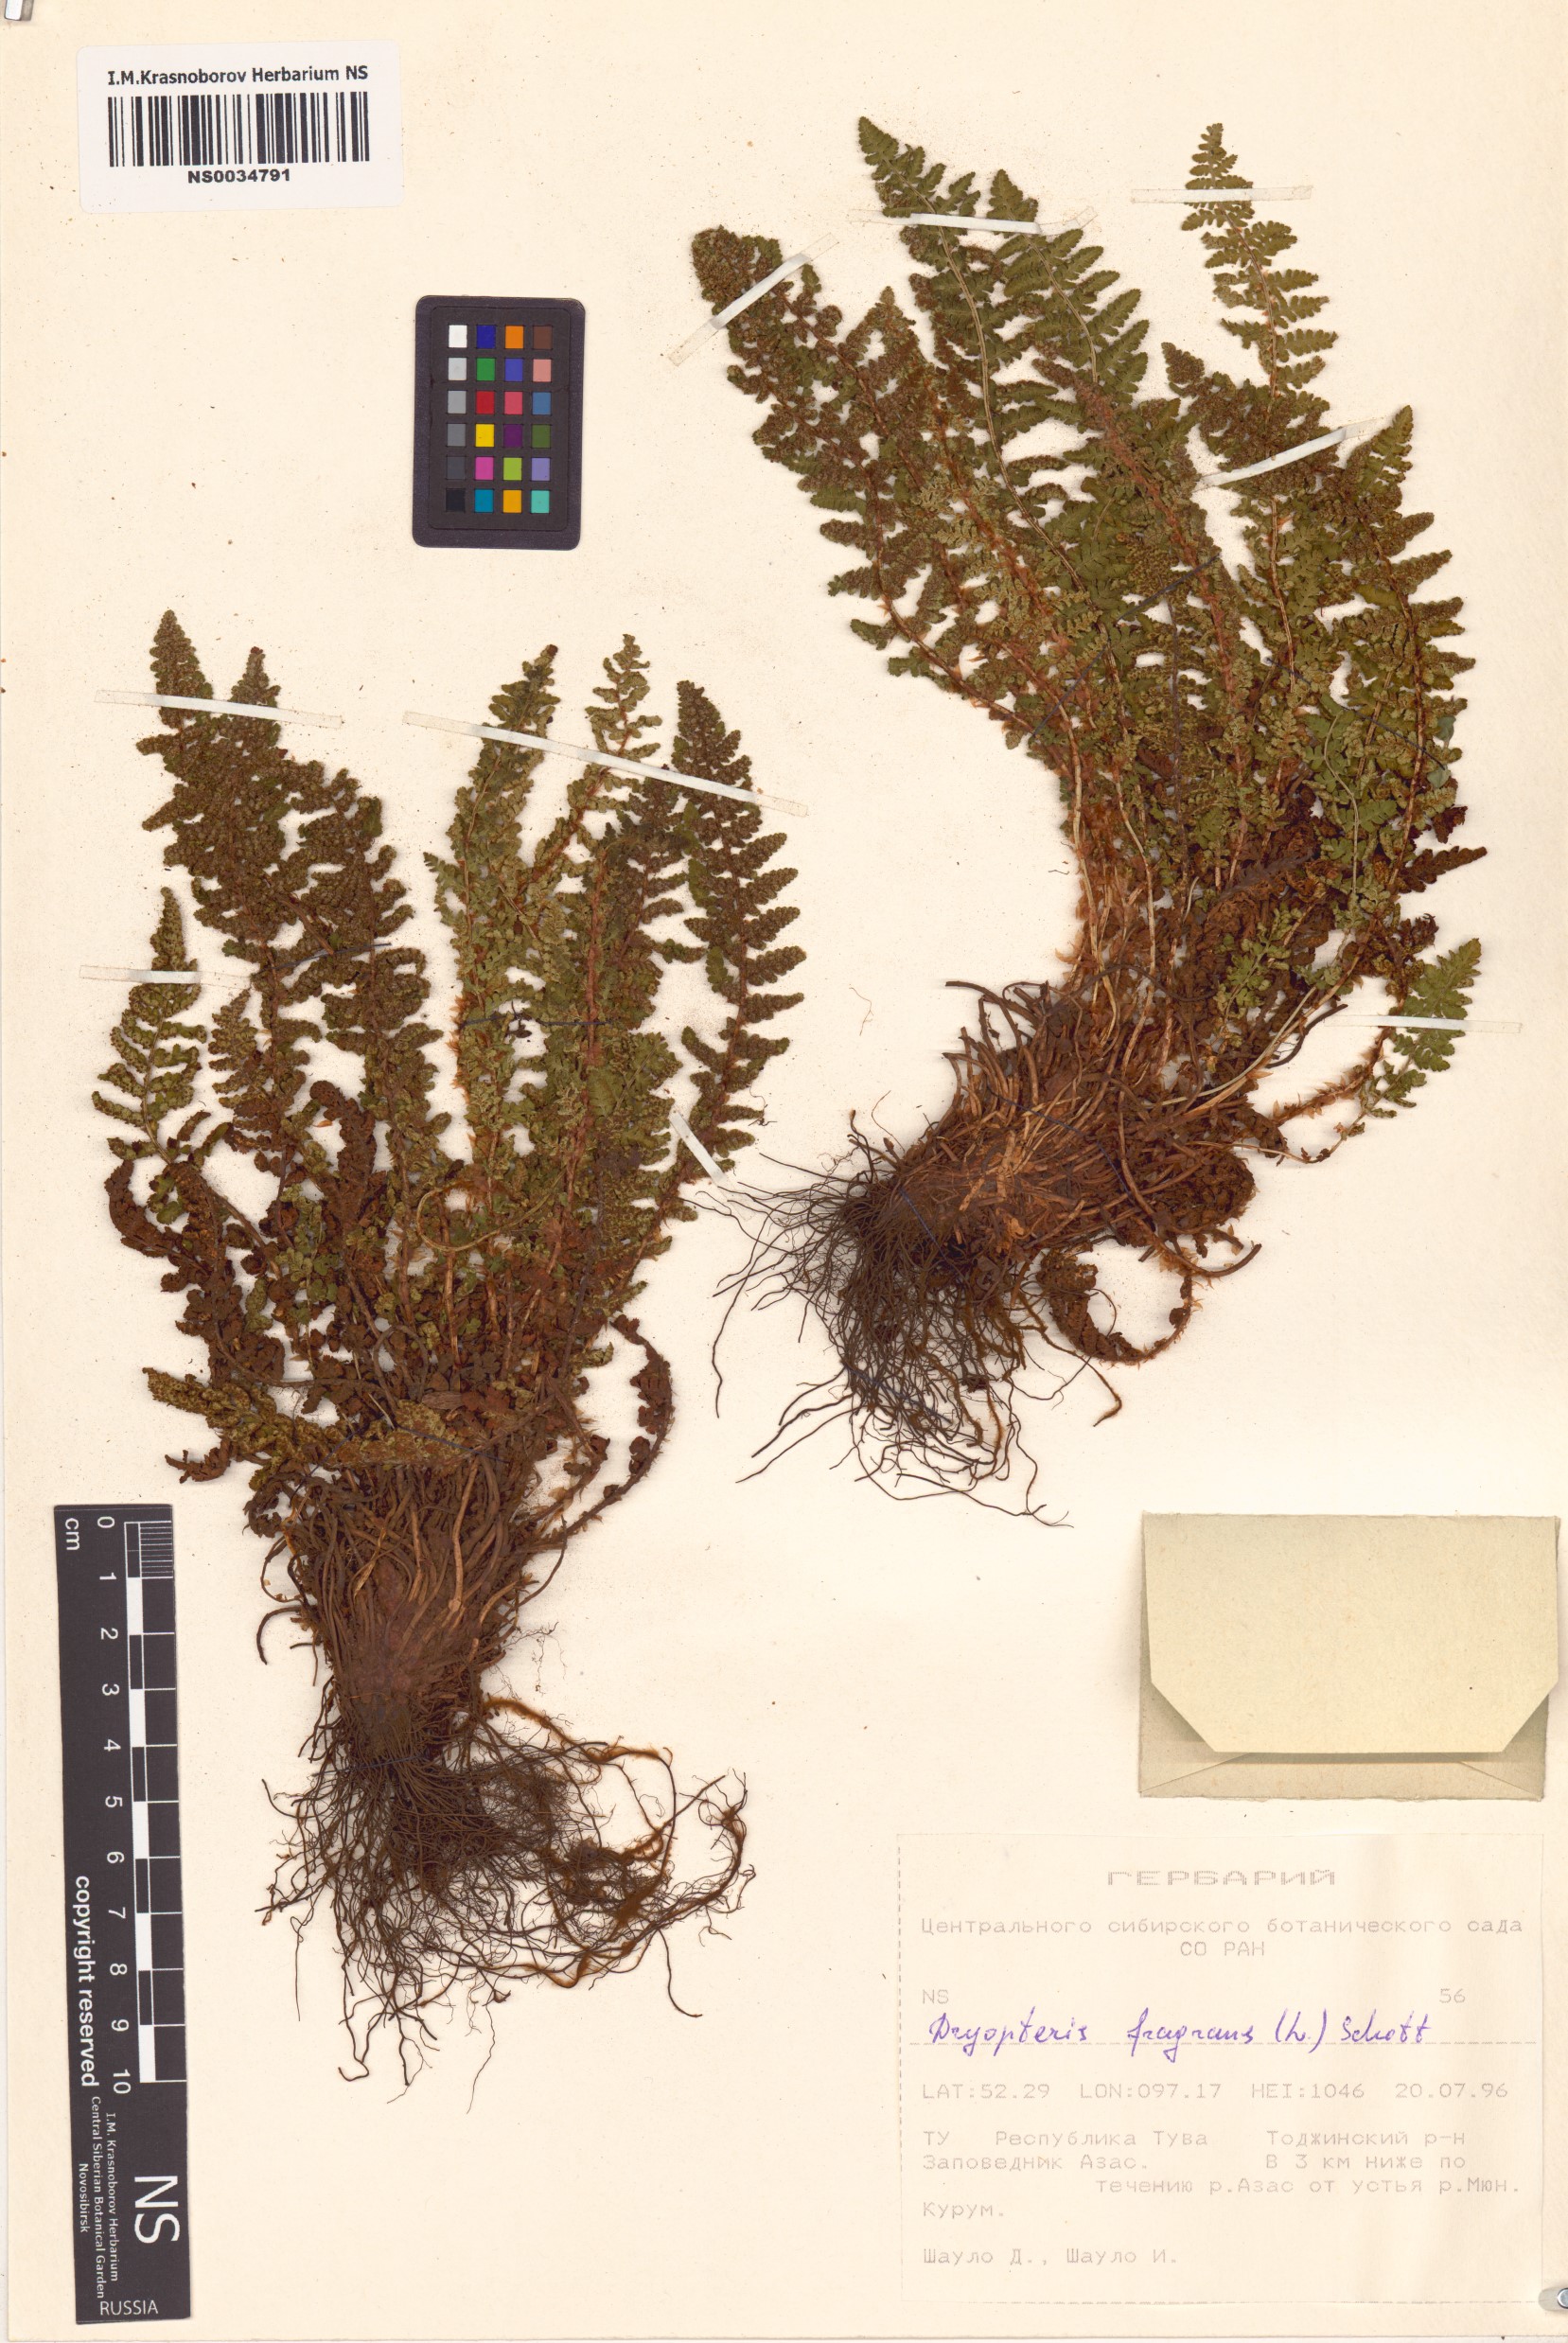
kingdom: Plantae
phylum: Tracheophyta
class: Polypodiopsida
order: Polypodiales
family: Dryopteridaceae
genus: Dryopteris
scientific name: Dryopteris fragrans
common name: Fragrant wood fern
